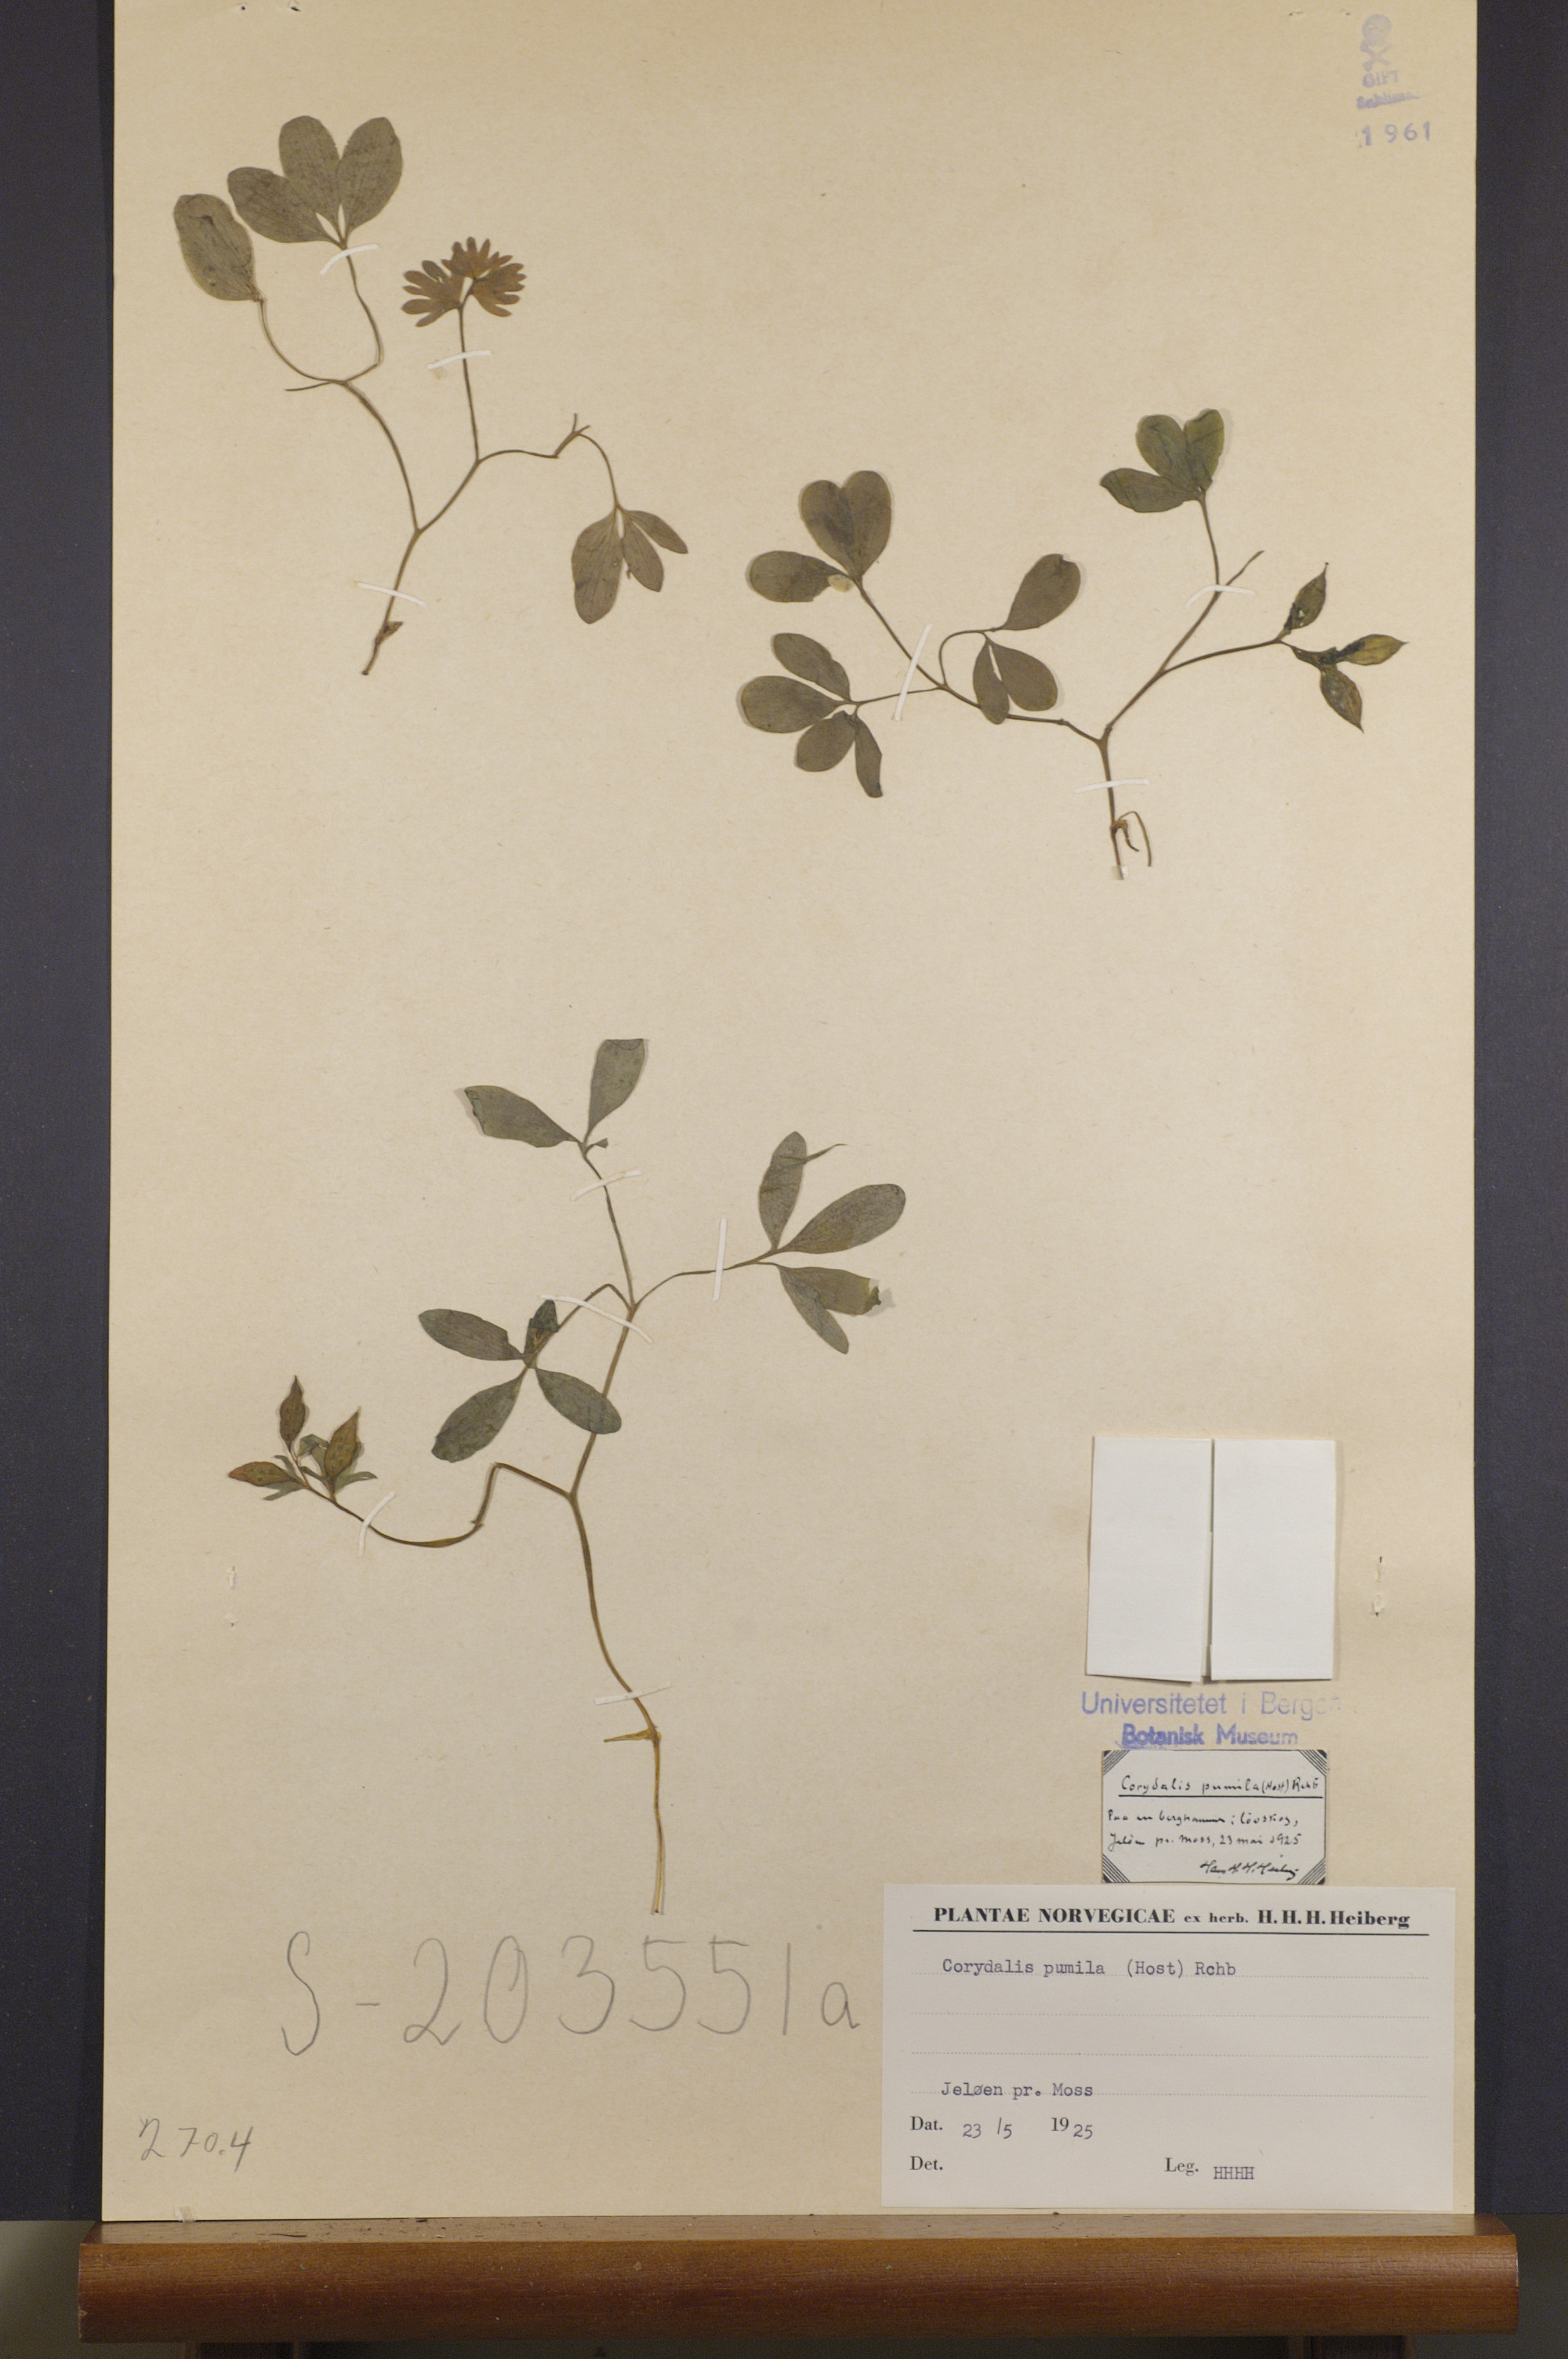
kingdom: Plantae
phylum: Tracheophyta
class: Magnoliopsida
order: Ranunculales
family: Papaveraceae
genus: Corydalis
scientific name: Corydalis pumila
